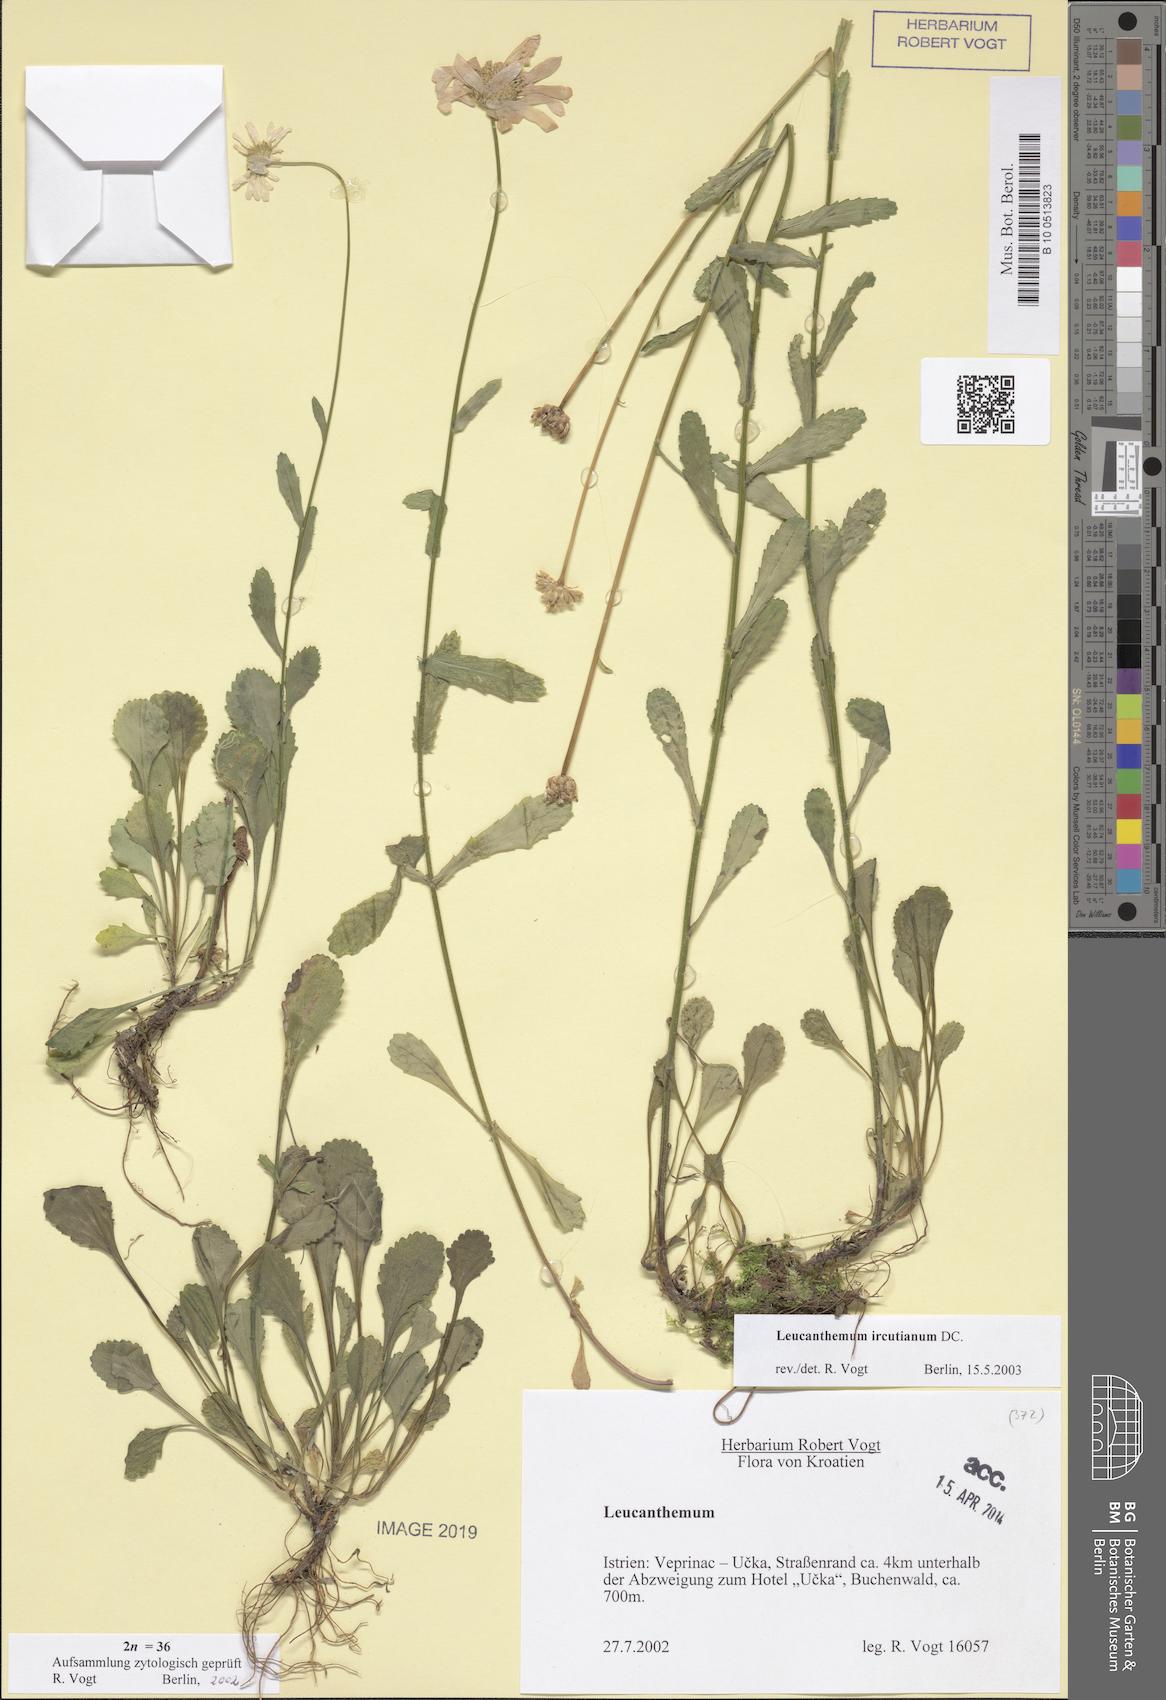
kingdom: Plantae
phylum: Tracheophyta
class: Magnoliopsida
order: Asterales
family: Asteraceae
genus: Leucanthemum
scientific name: Leucanthemum ircutianum
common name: Daisy
